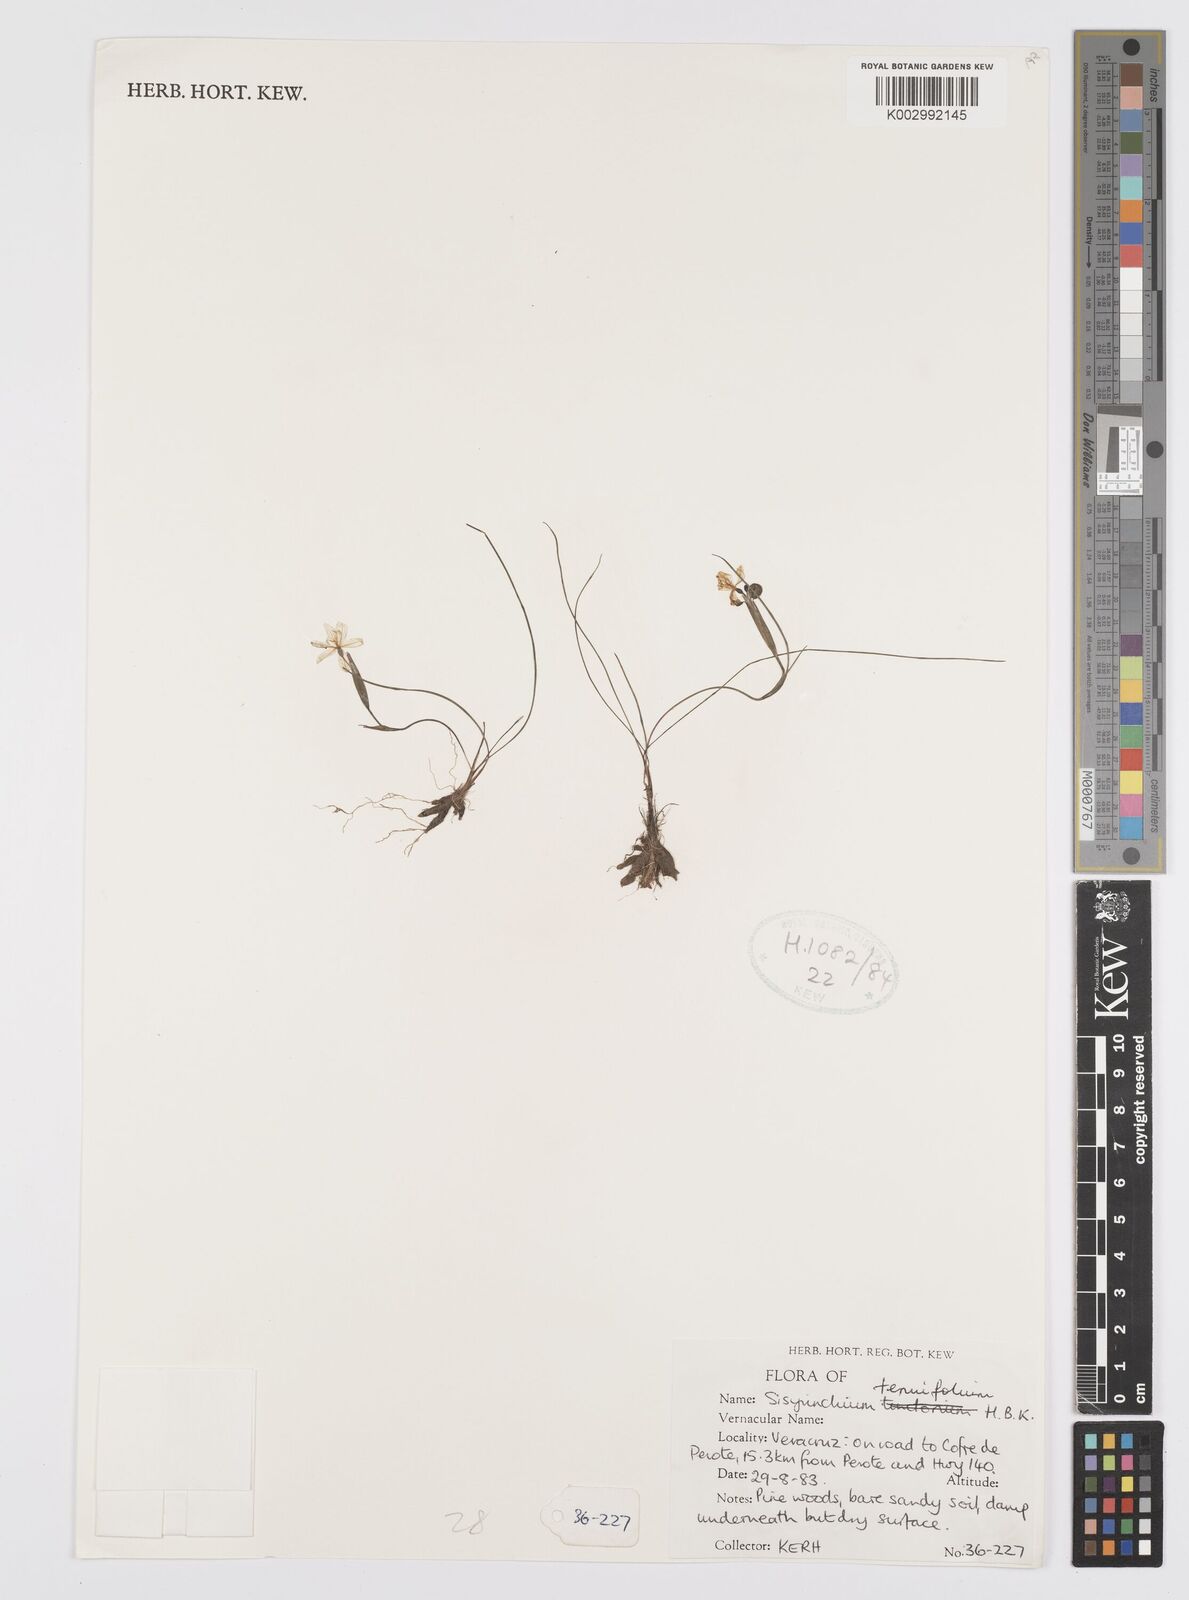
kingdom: Plantae
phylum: Tracheophyta
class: Liliopsida
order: Asparagales
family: Iridaceae
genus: Sisyrinchium
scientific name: Sisyrinchium langloisii
